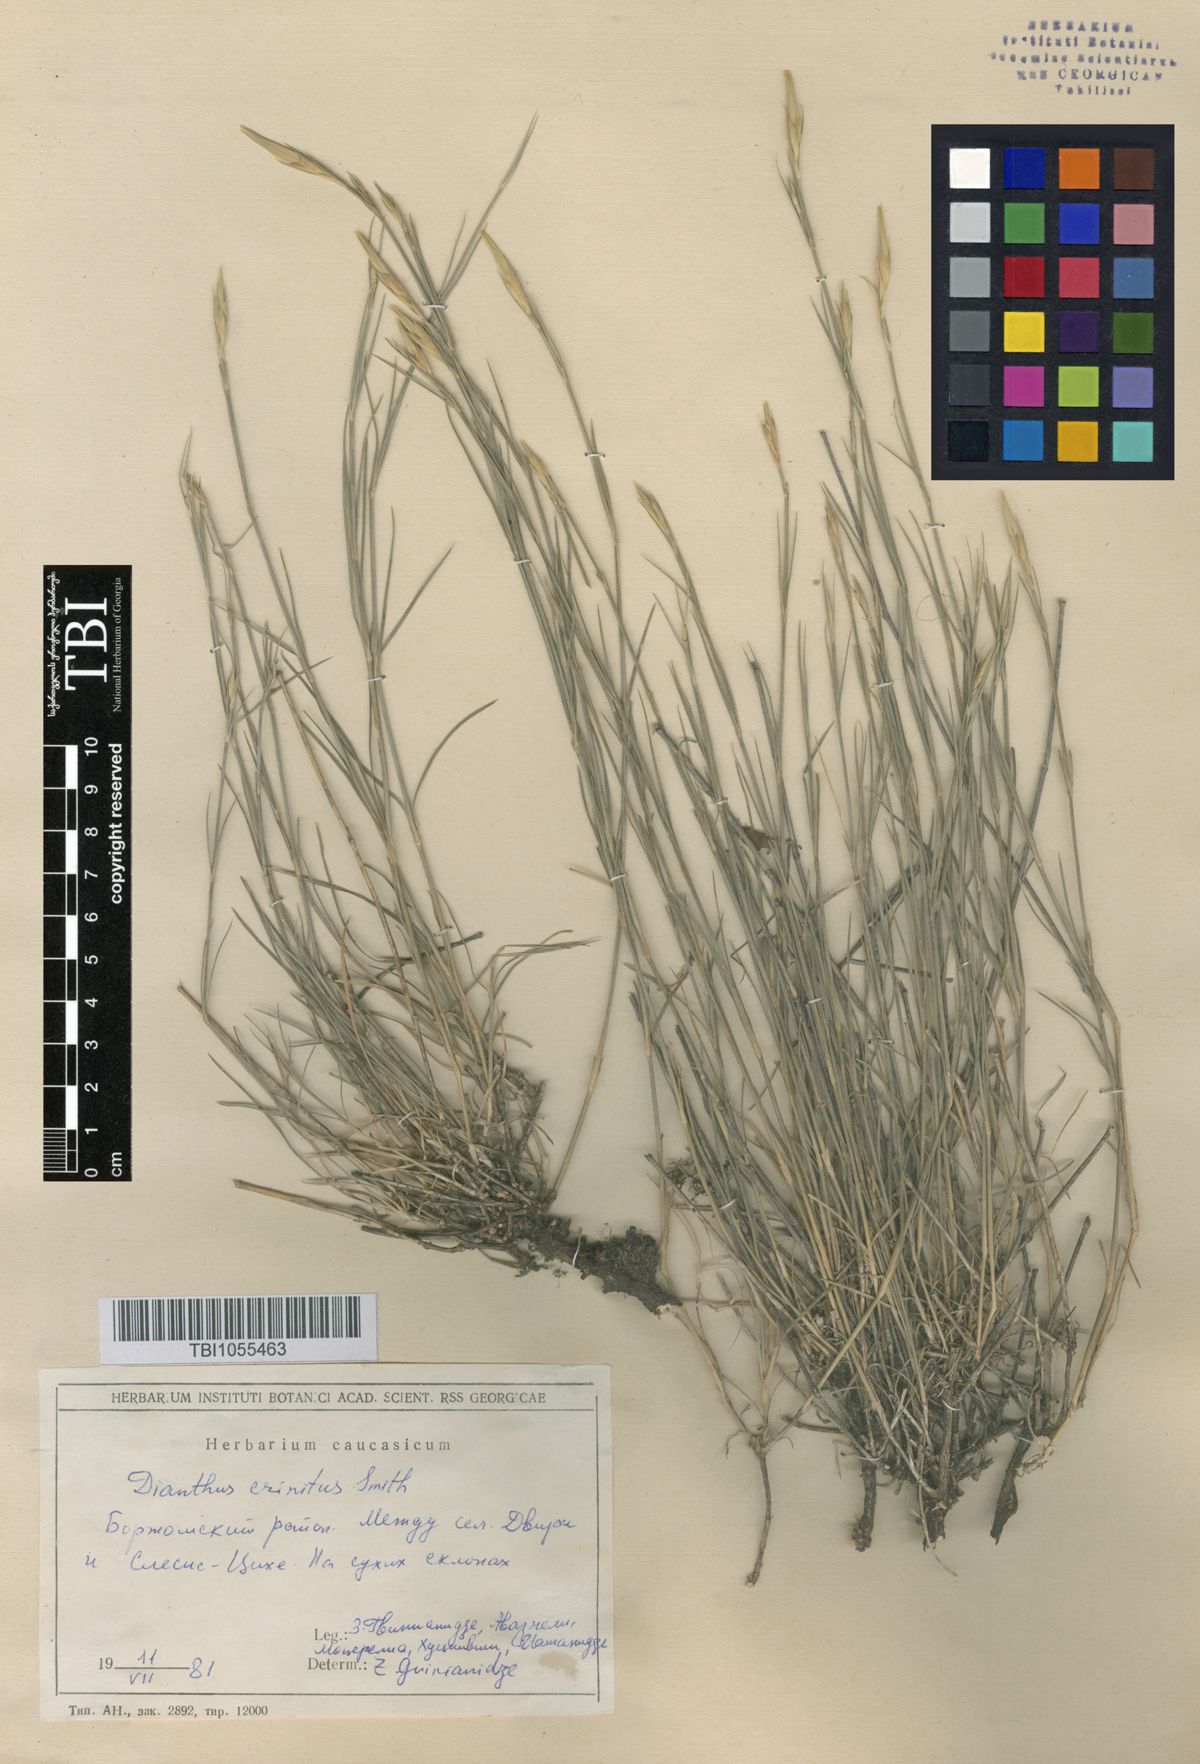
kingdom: Plantae
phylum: Tracheophyta
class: Magnoliopsida
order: Caryophyllales
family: Caryophyllaceae
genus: Dianthus
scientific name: Dianthus crinitus
